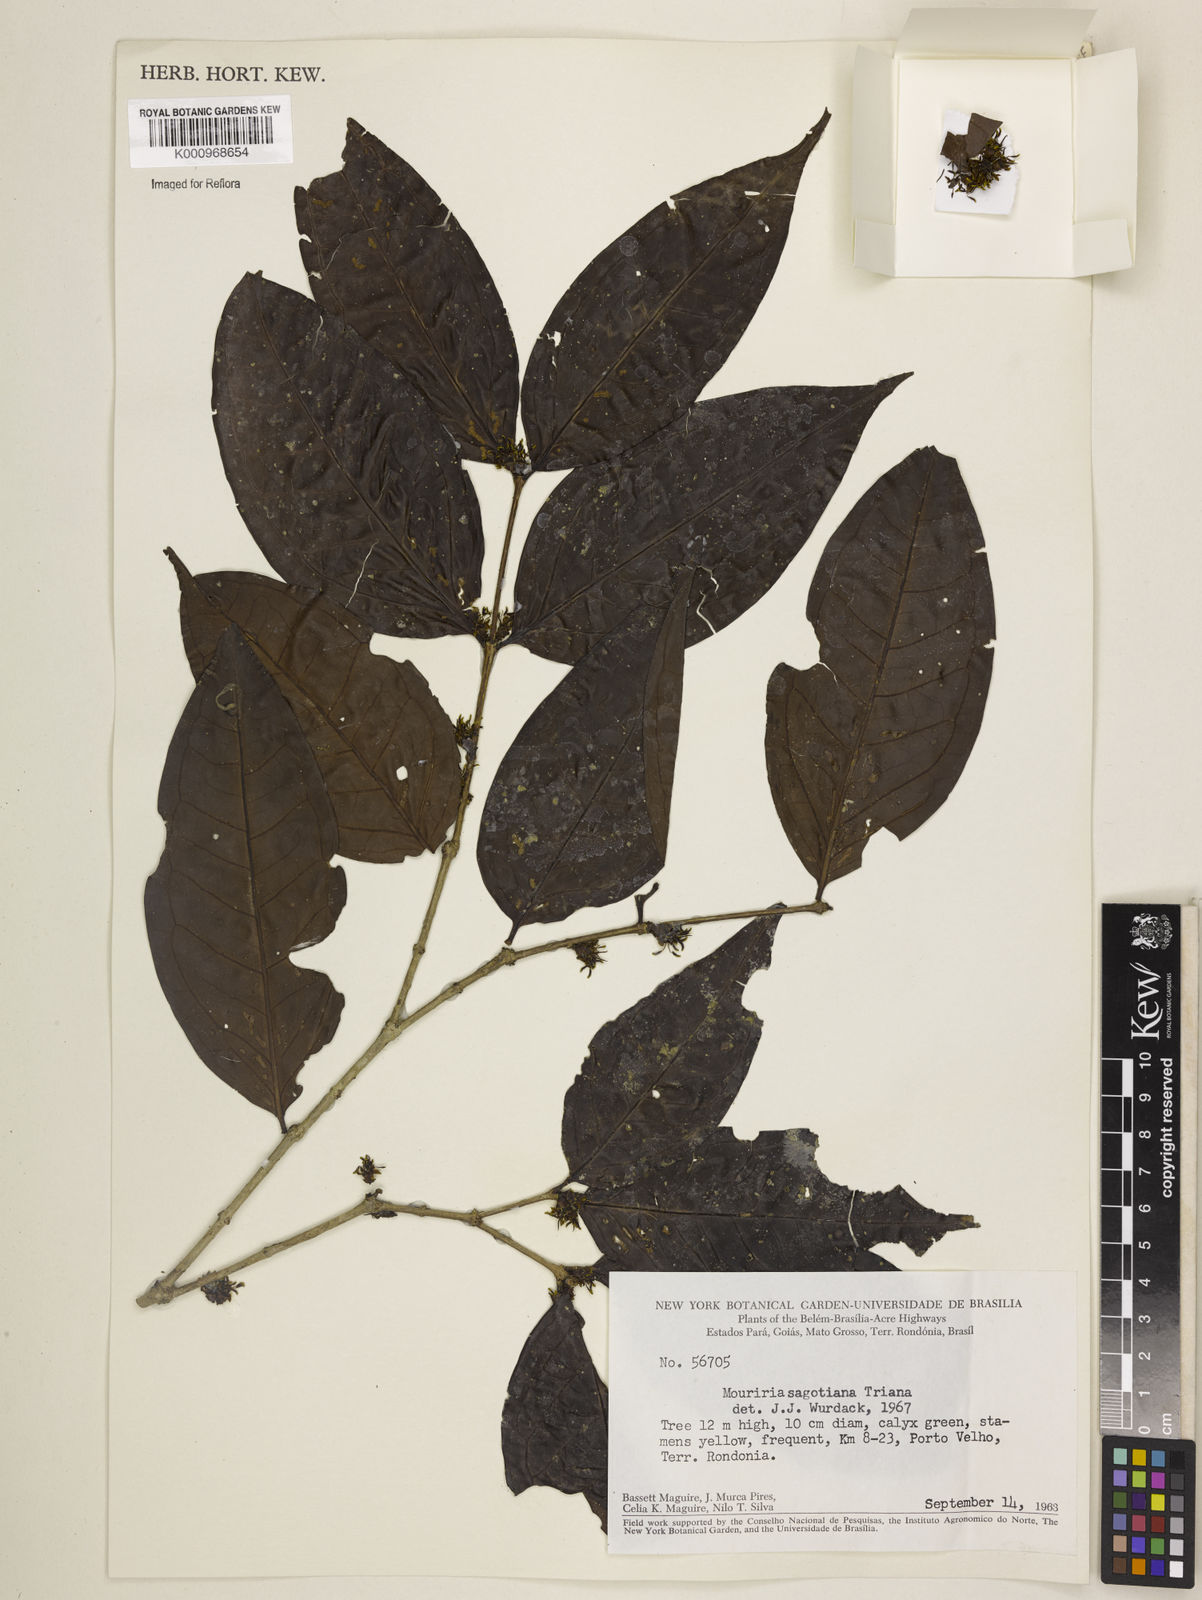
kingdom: Plantae
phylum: Tracheophyta
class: Magnoliopsida
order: Myrtales
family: Melastomataceae
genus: Mouriri
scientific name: Mouriri sagotiana
